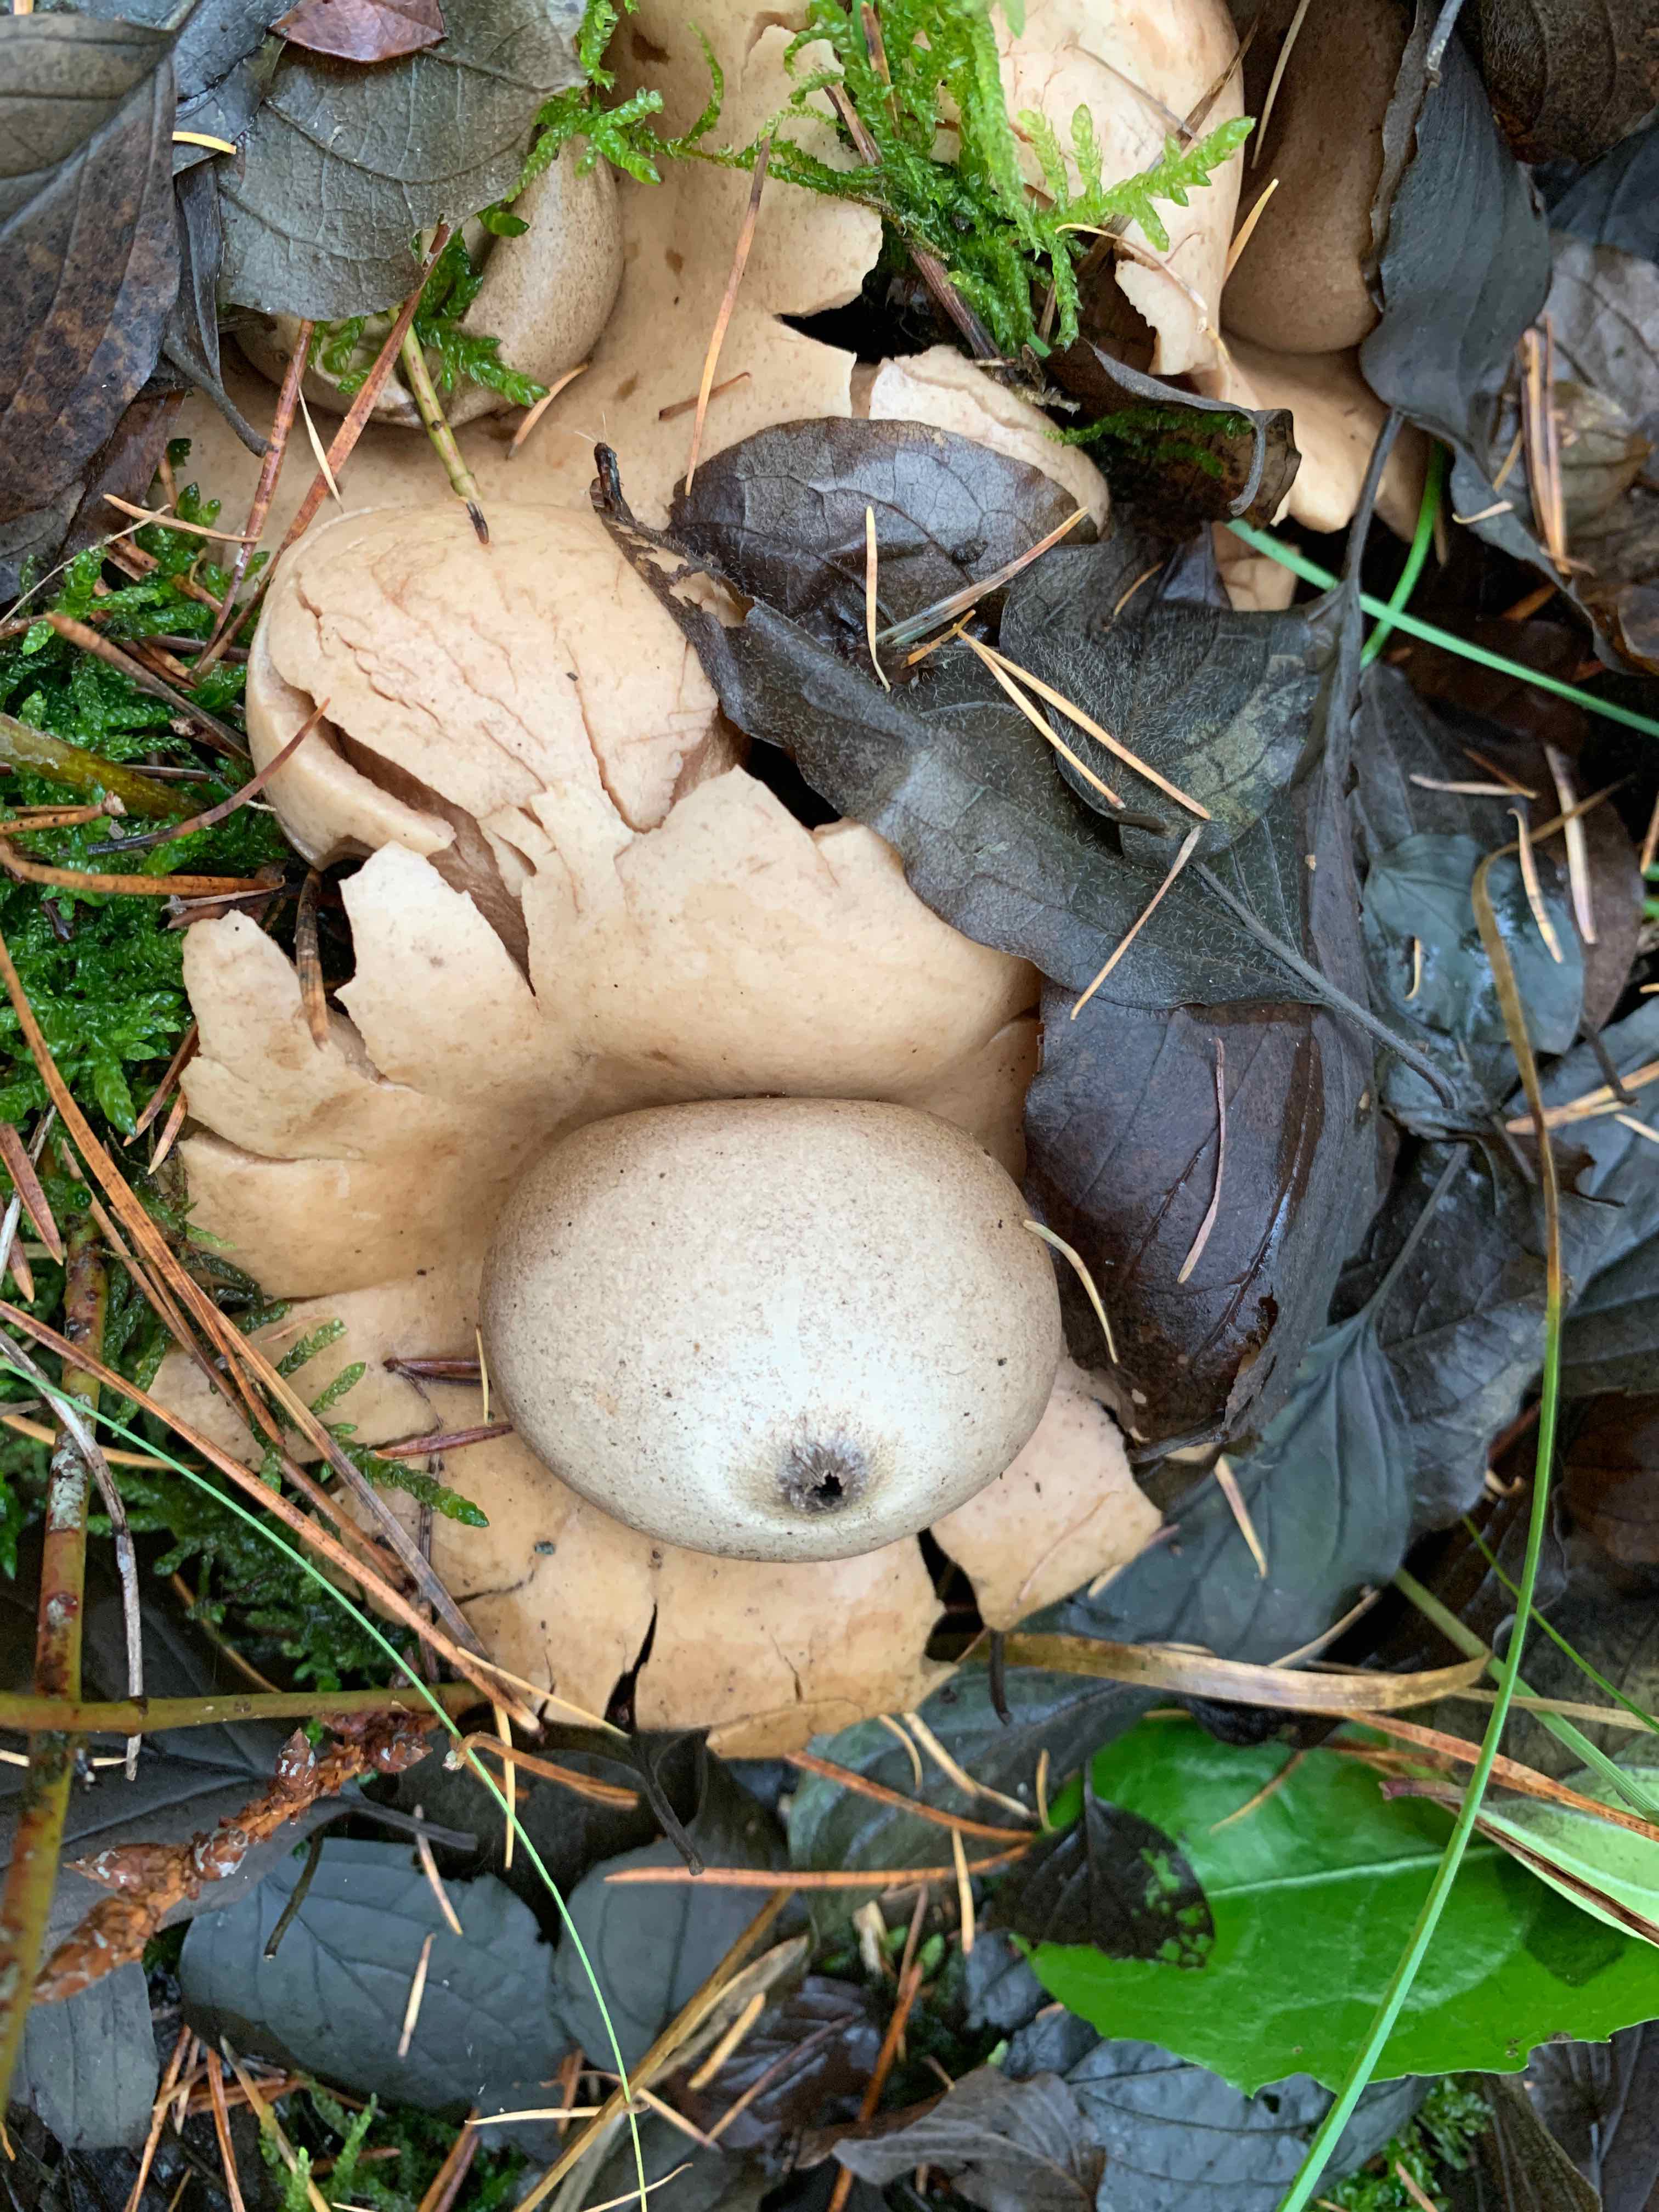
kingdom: Fungi
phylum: Basidiomycota
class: Agaricomycetes
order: Geastrales
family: Geastraceae
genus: Geastrum
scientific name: Geastrum michelianum
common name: kødet stjernebold
